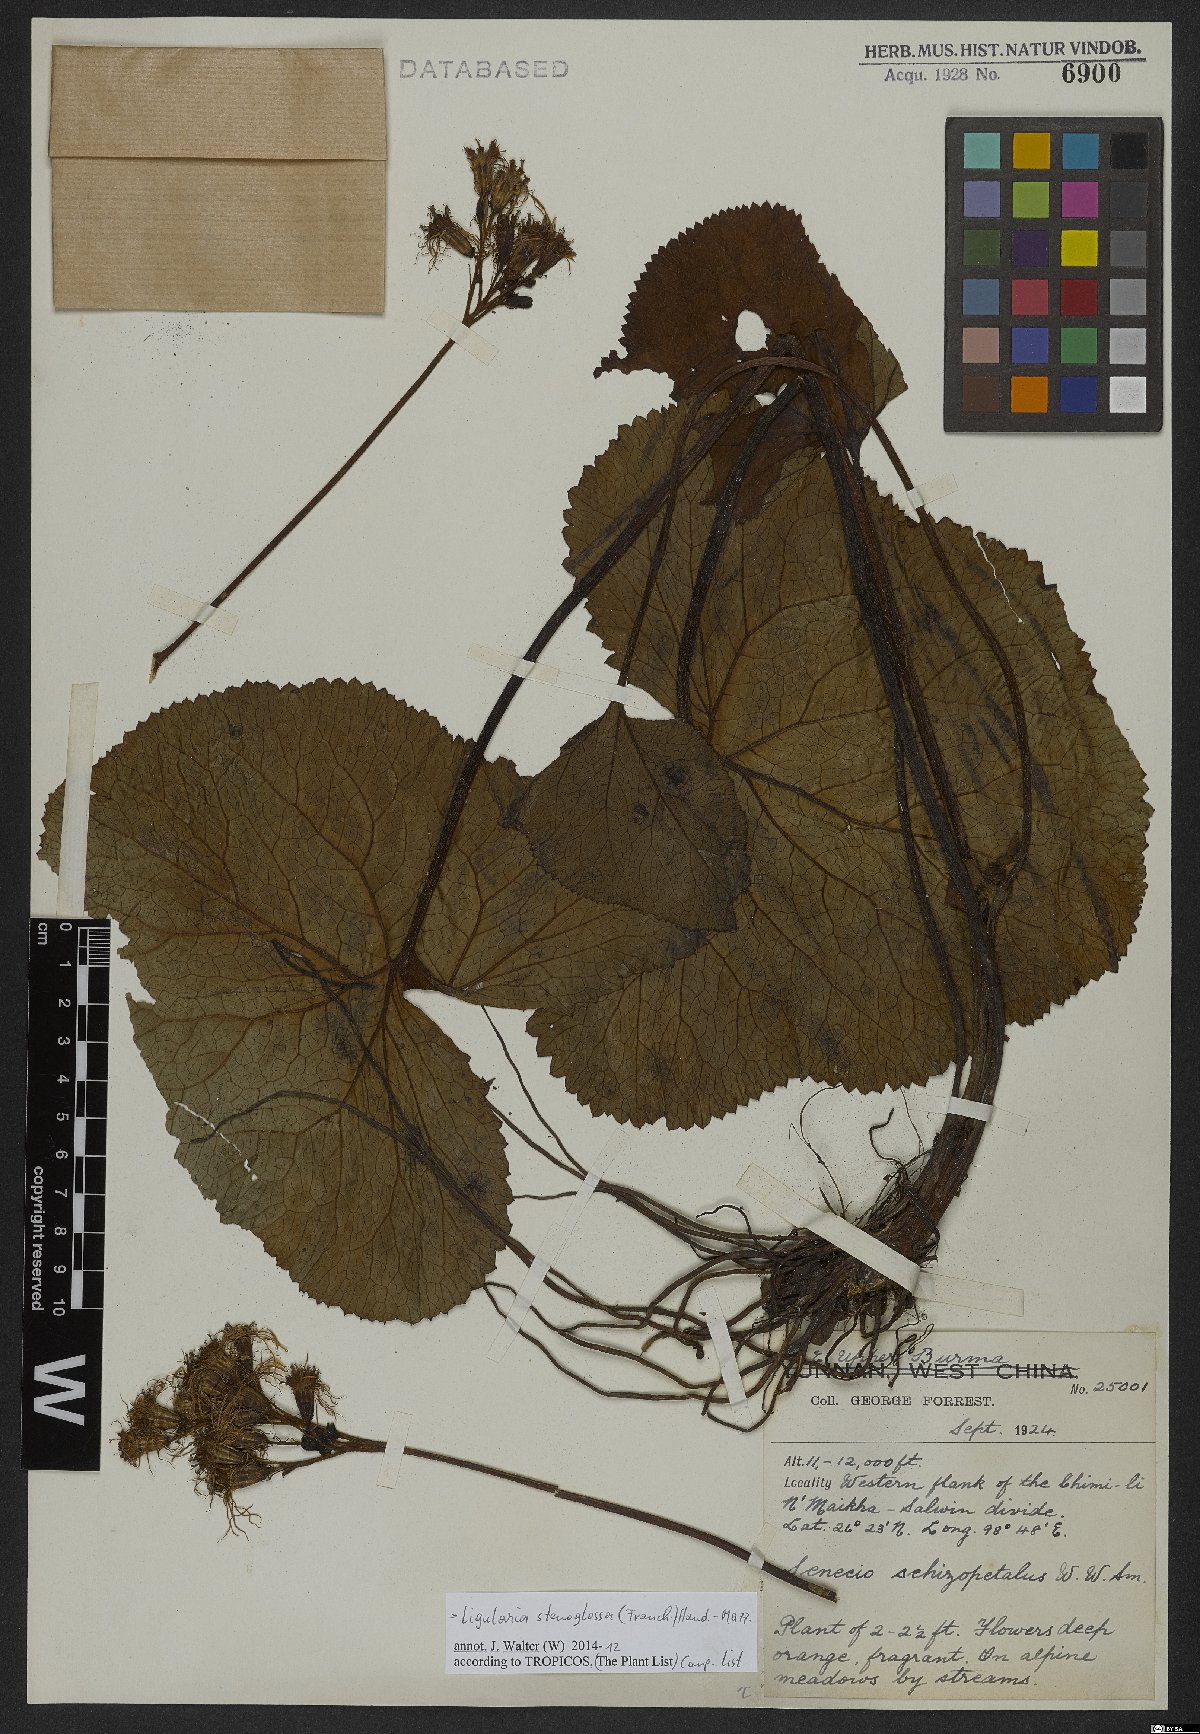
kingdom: Plantae
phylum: Tracheophyta
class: Magnoliopsida
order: Asterales
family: Asteraceae
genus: Ligularia
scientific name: Ligularia stenoglossa
